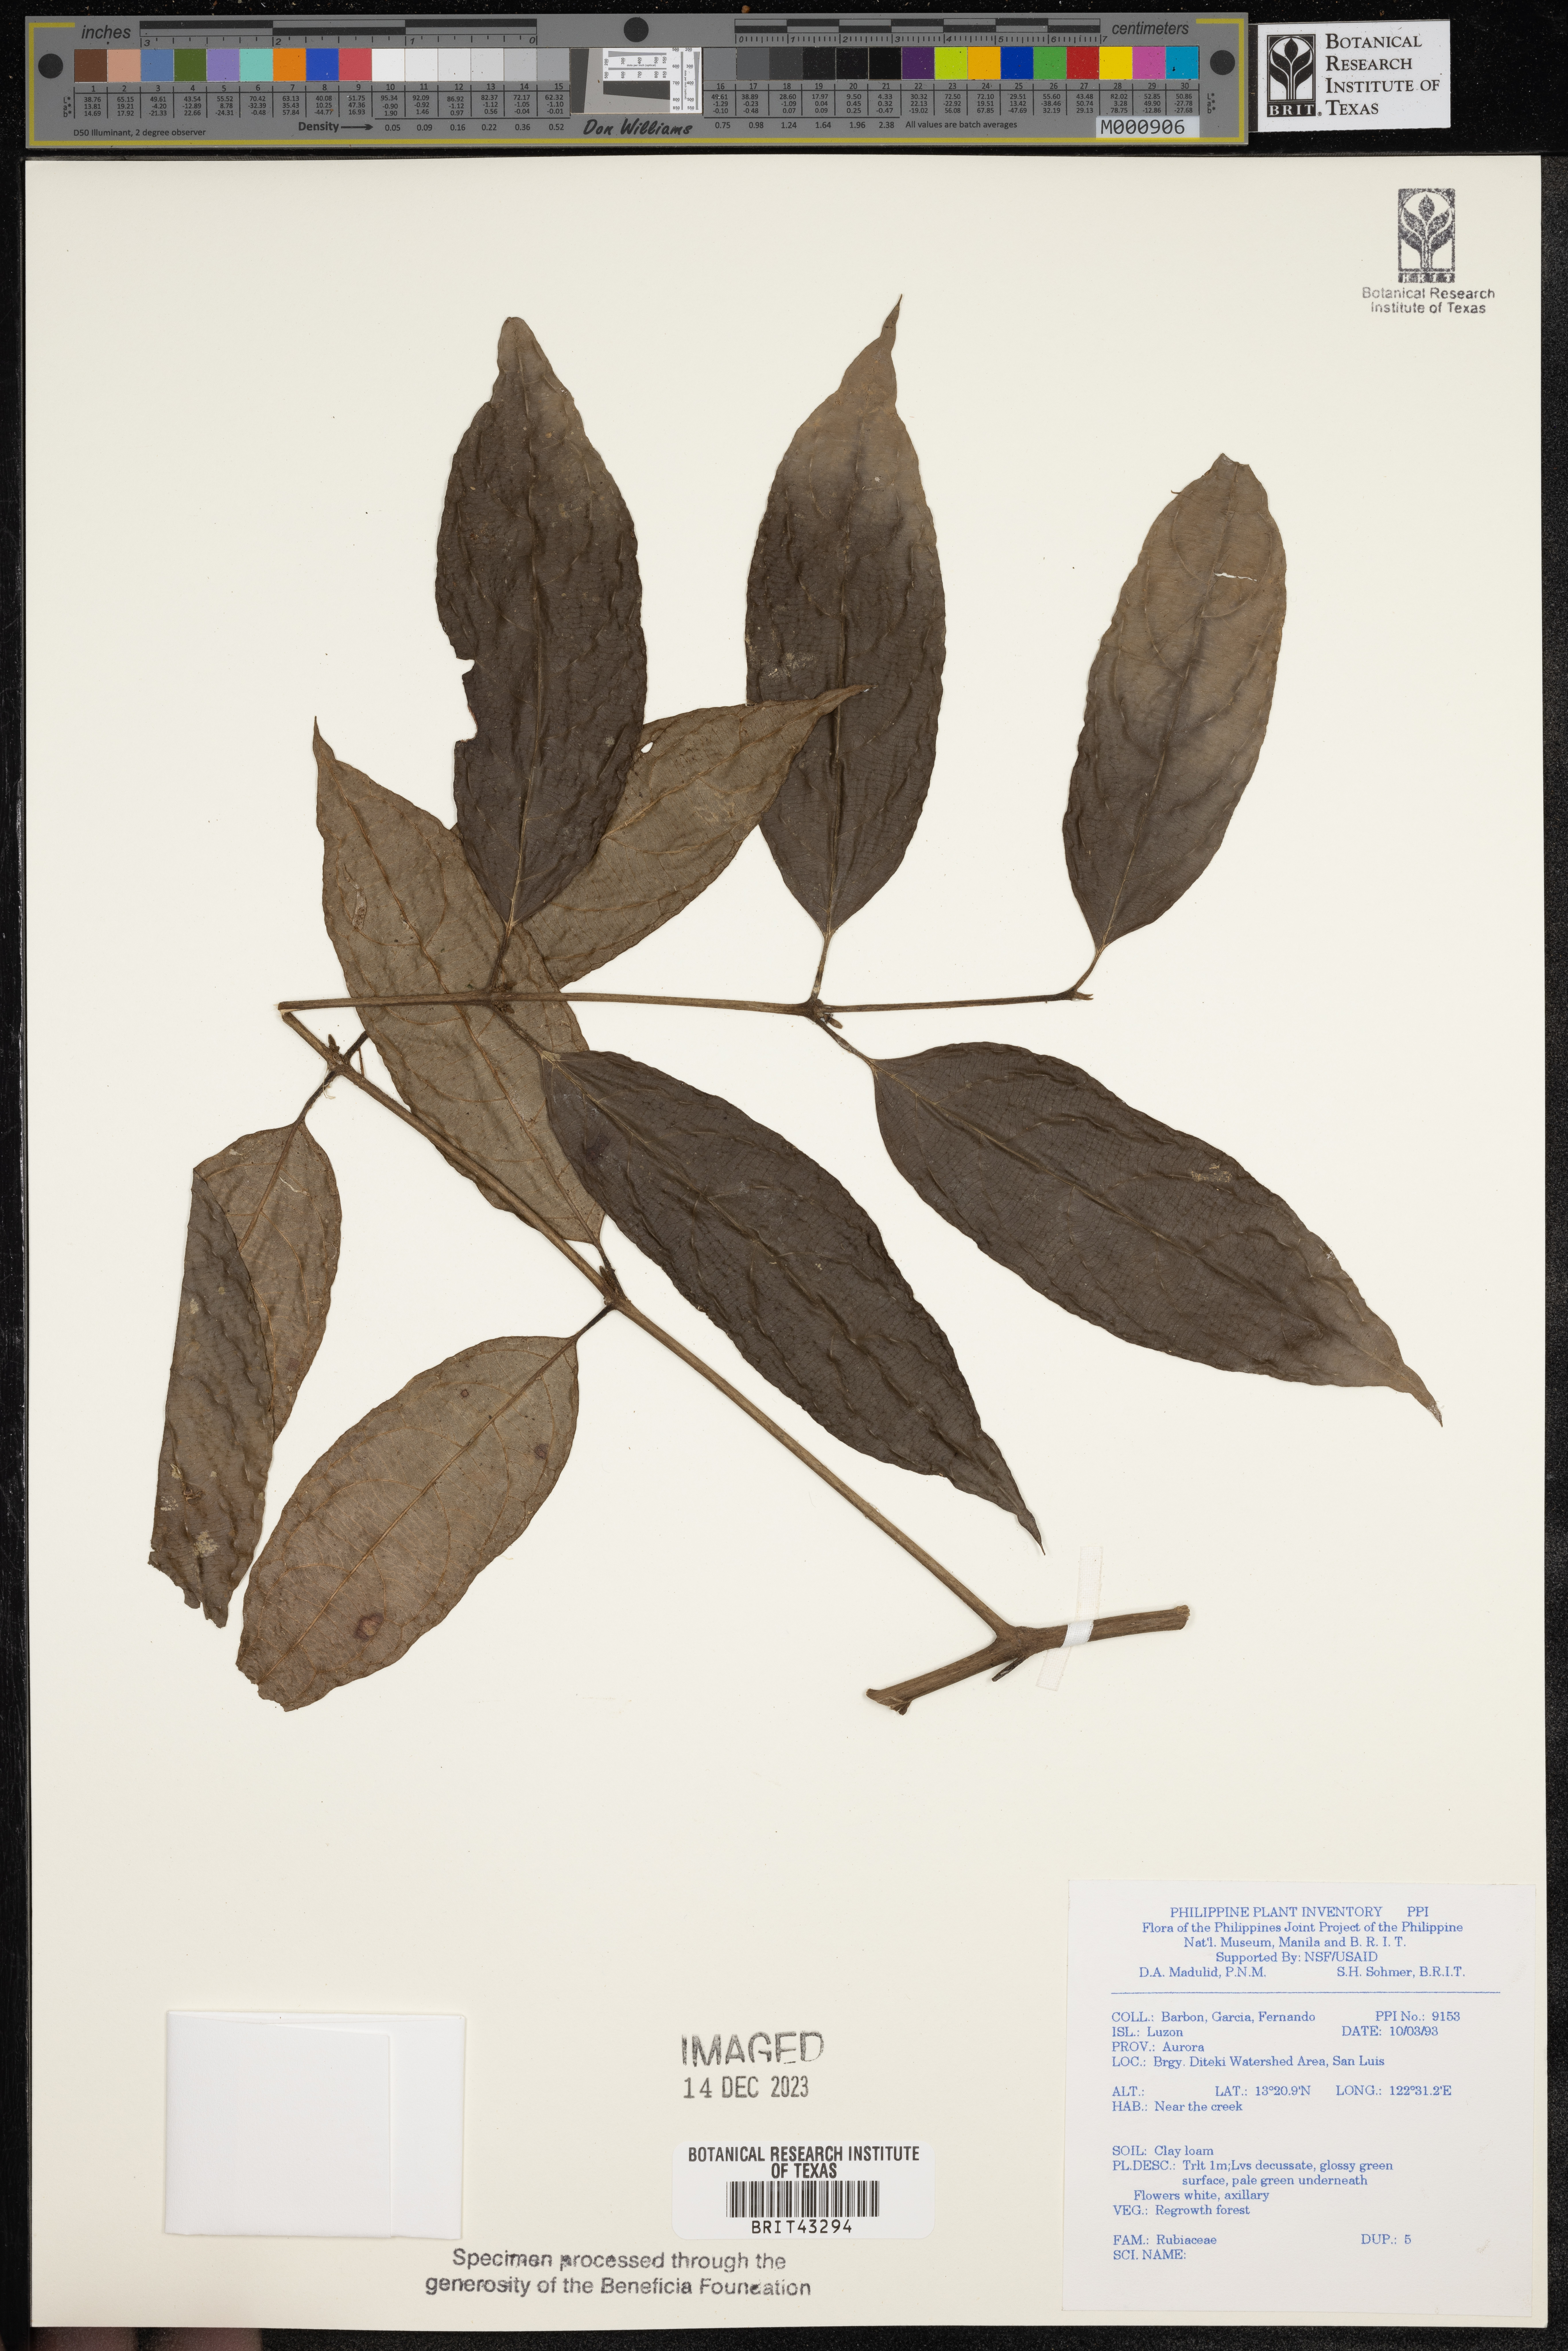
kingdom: Plantae
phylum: Tracheophyta
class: Magnoliopsida
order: Gentianales
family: Rubiaceae
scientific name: Rubiaceae
